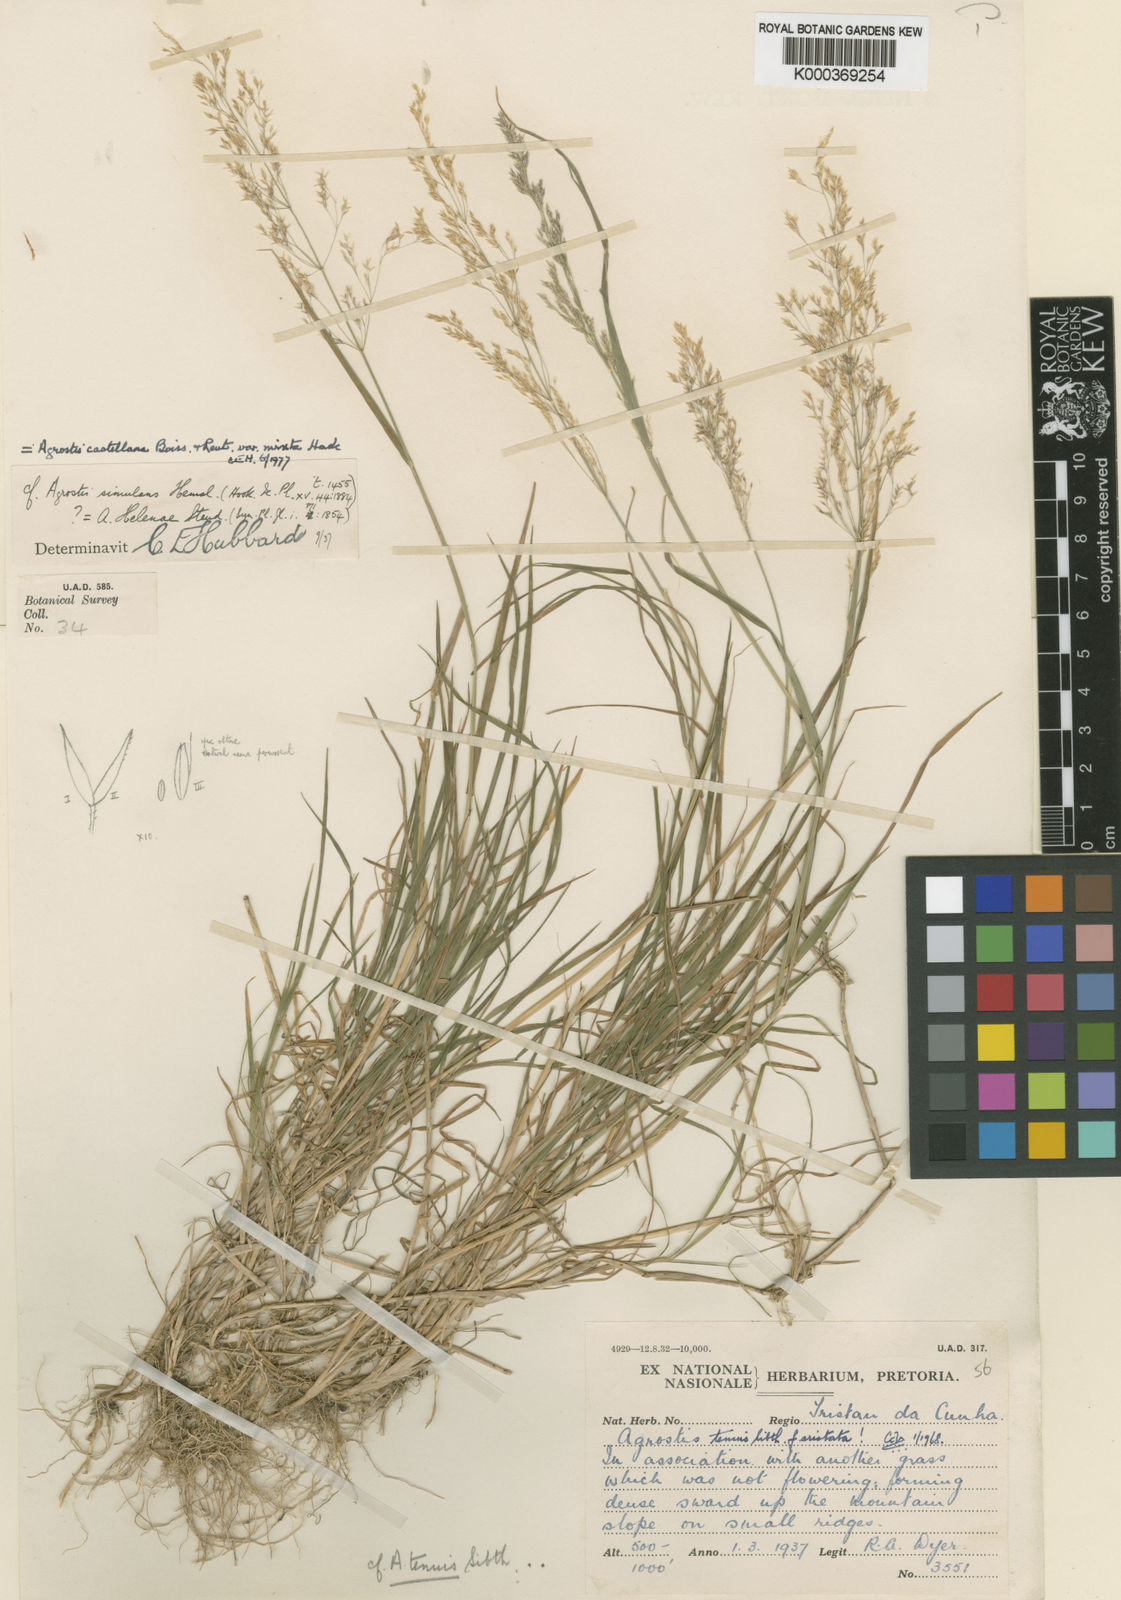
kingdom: Plantae
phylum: Tracheophyta
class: Liliopsida
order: Poales
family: Poaceae
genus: Agrostis
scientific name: Agrostis capillaris
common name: Colonial bentgrass
